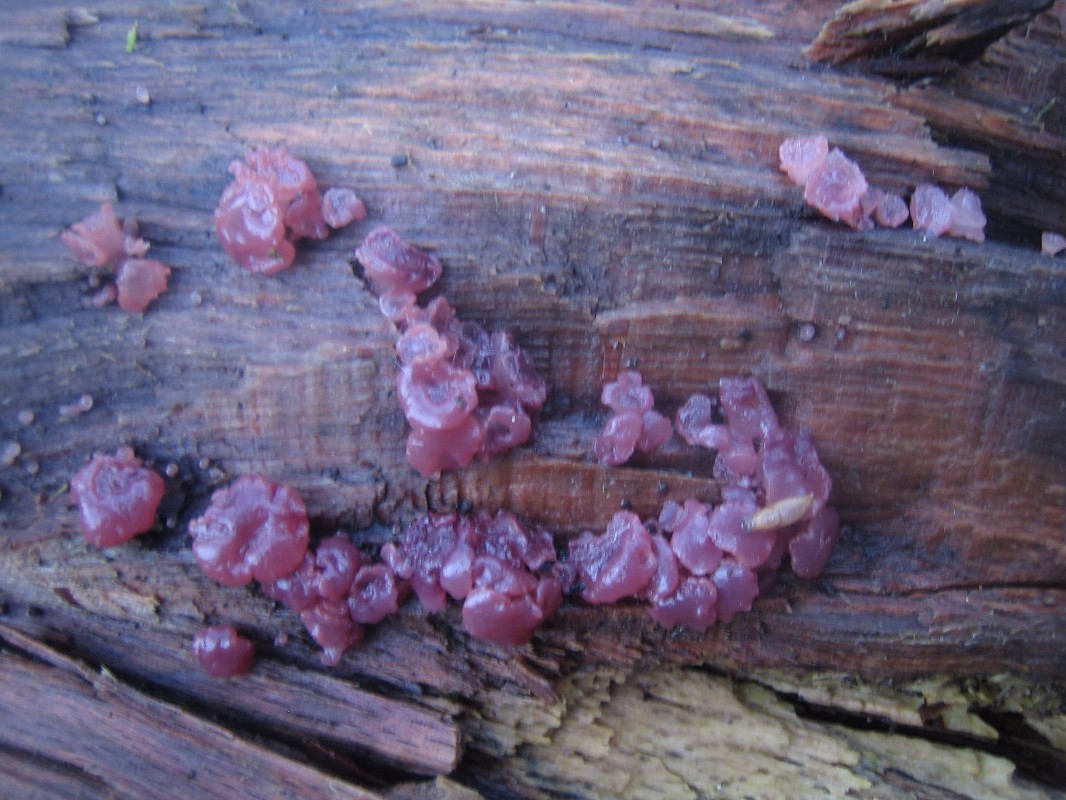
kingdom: Fungi
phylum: Ascomycota
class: Leotiomycetes
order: Helotiales
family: Gelatinodiscaceae
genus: Ascocoryne
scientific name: Ascocoryne
